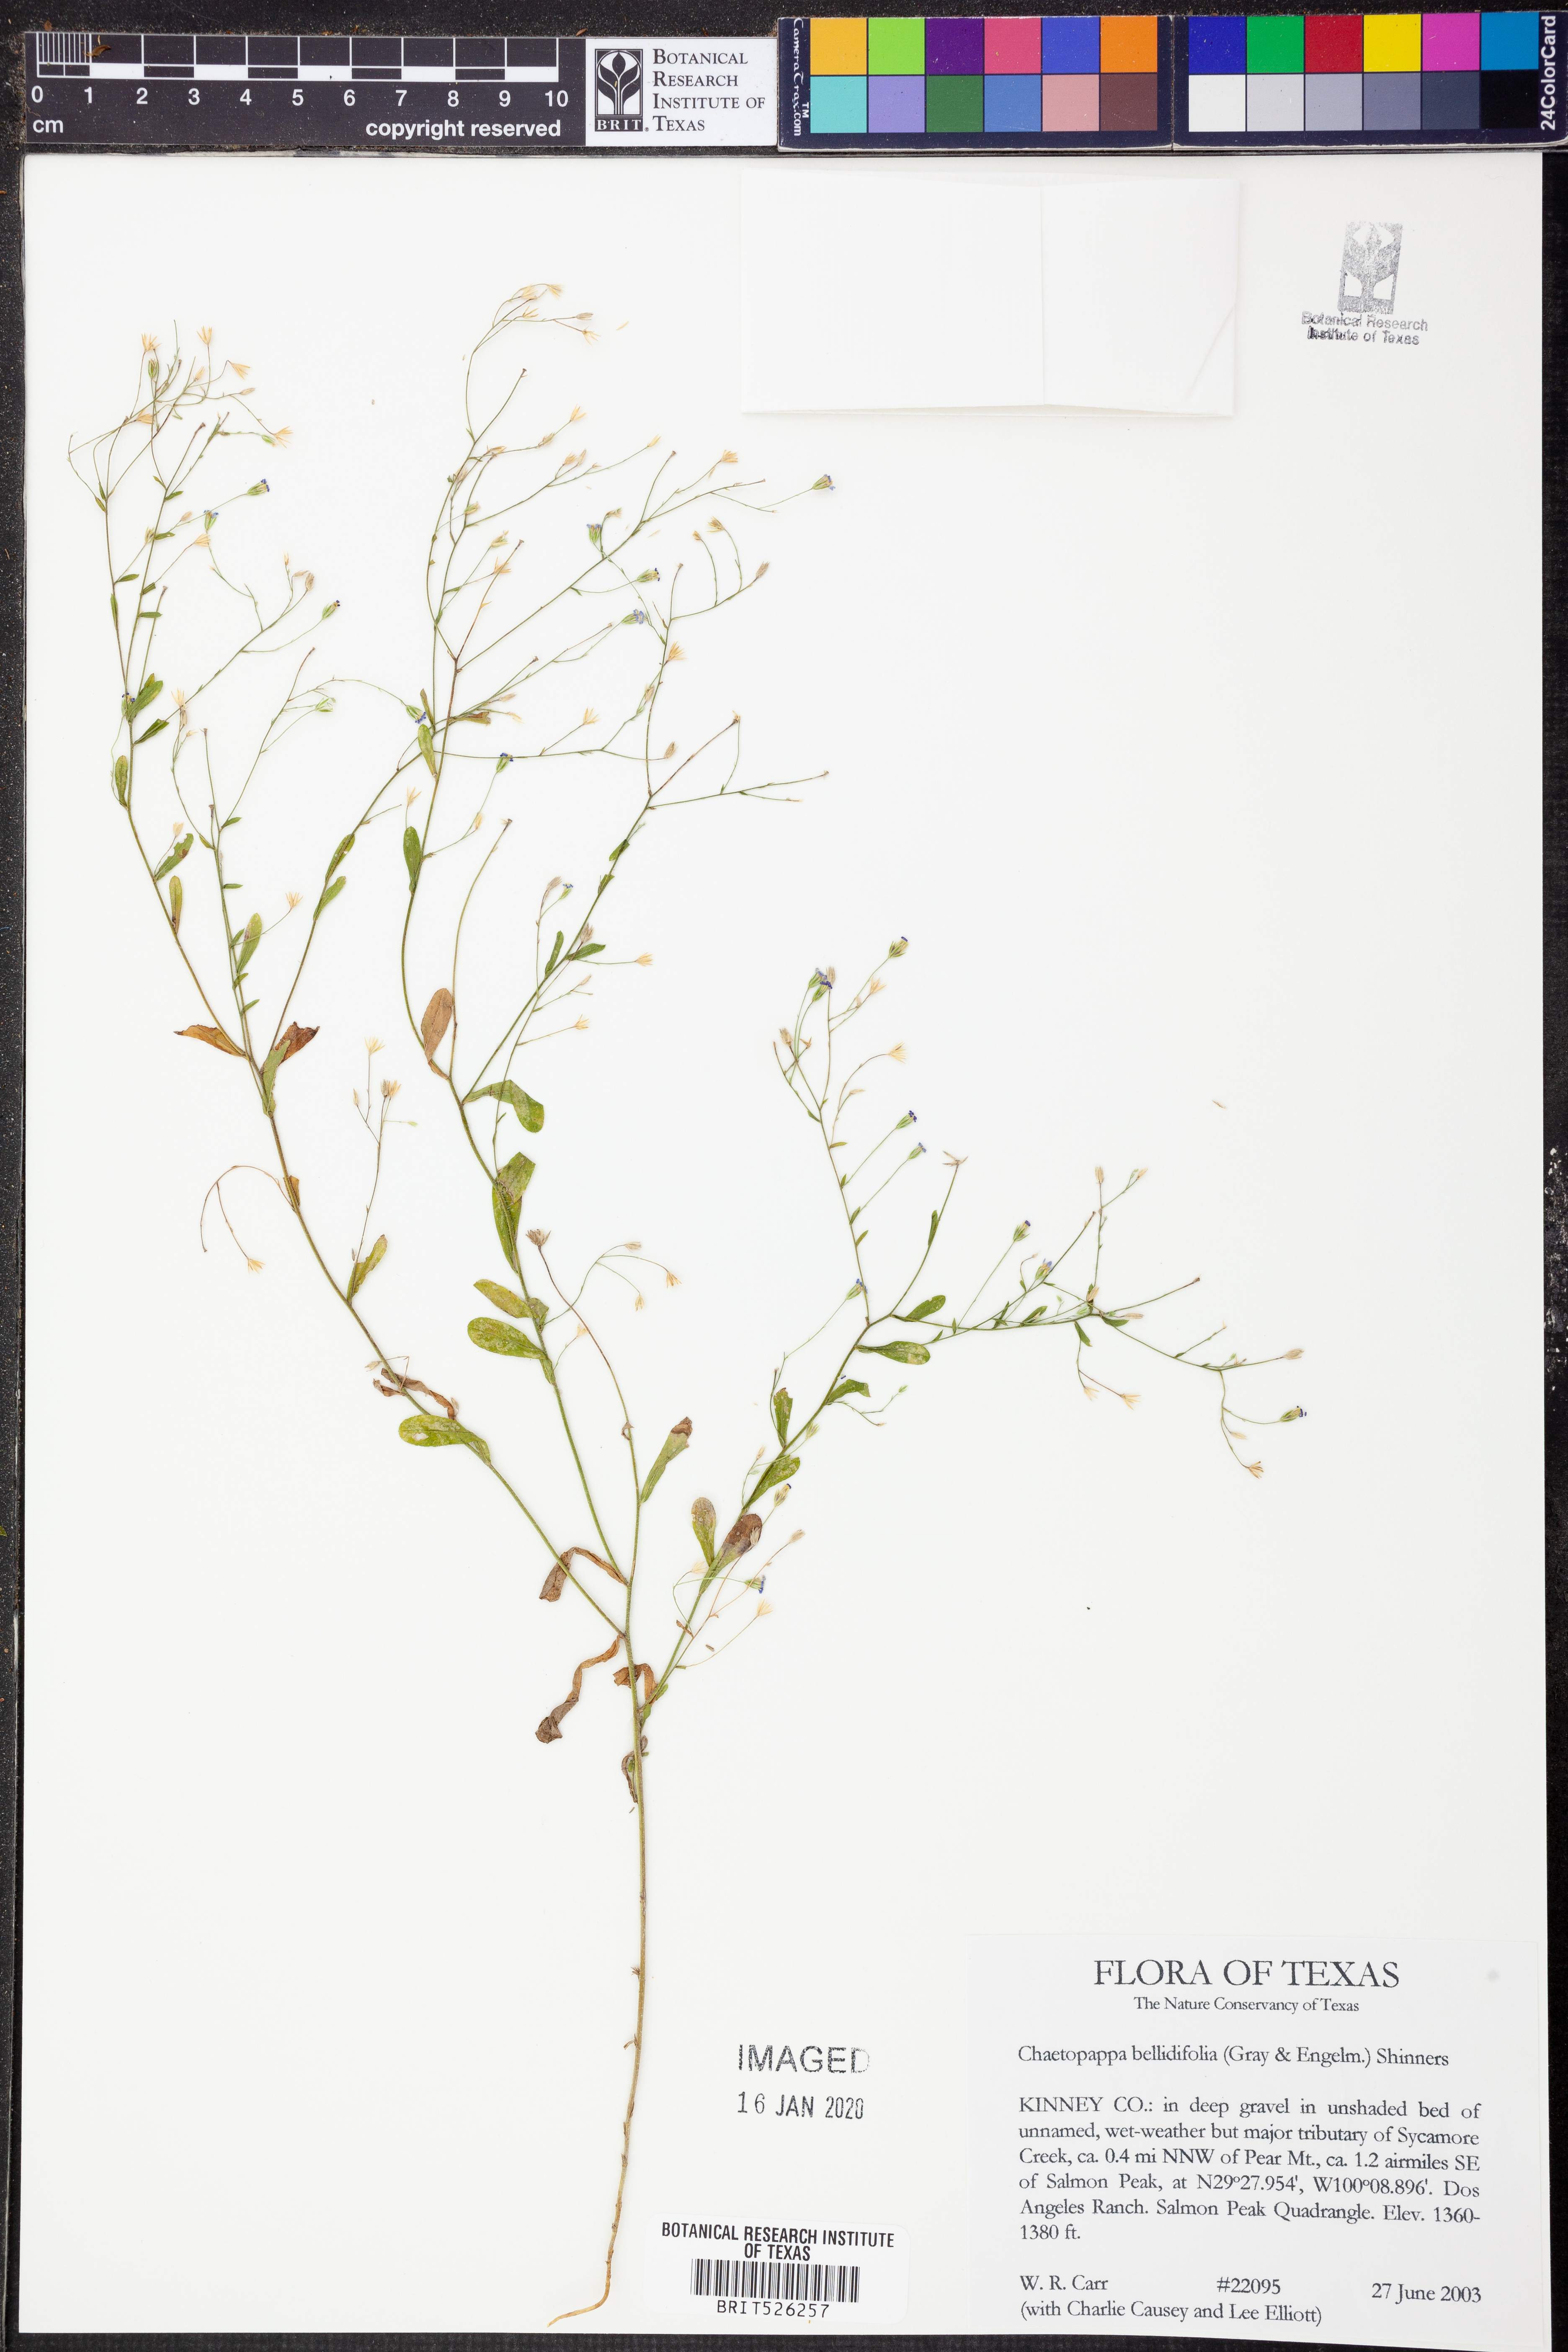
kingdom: Plantae
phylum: Tracheophyta
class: Magnoliopsida
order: Asterales
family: Asteraceae
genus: Chaetopappa
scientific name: Chaetopappa bellidifolia
